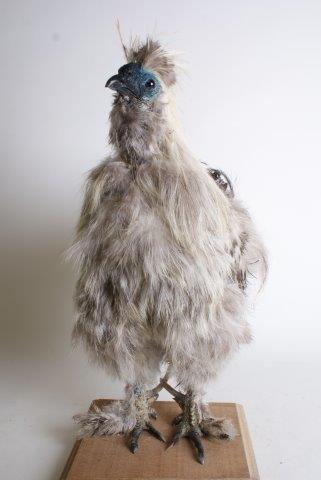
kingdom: Animalia
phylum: Chordata
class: Aves
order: Galliformes
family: Phasianidae
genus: Gallus
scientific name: Gallus gallus
